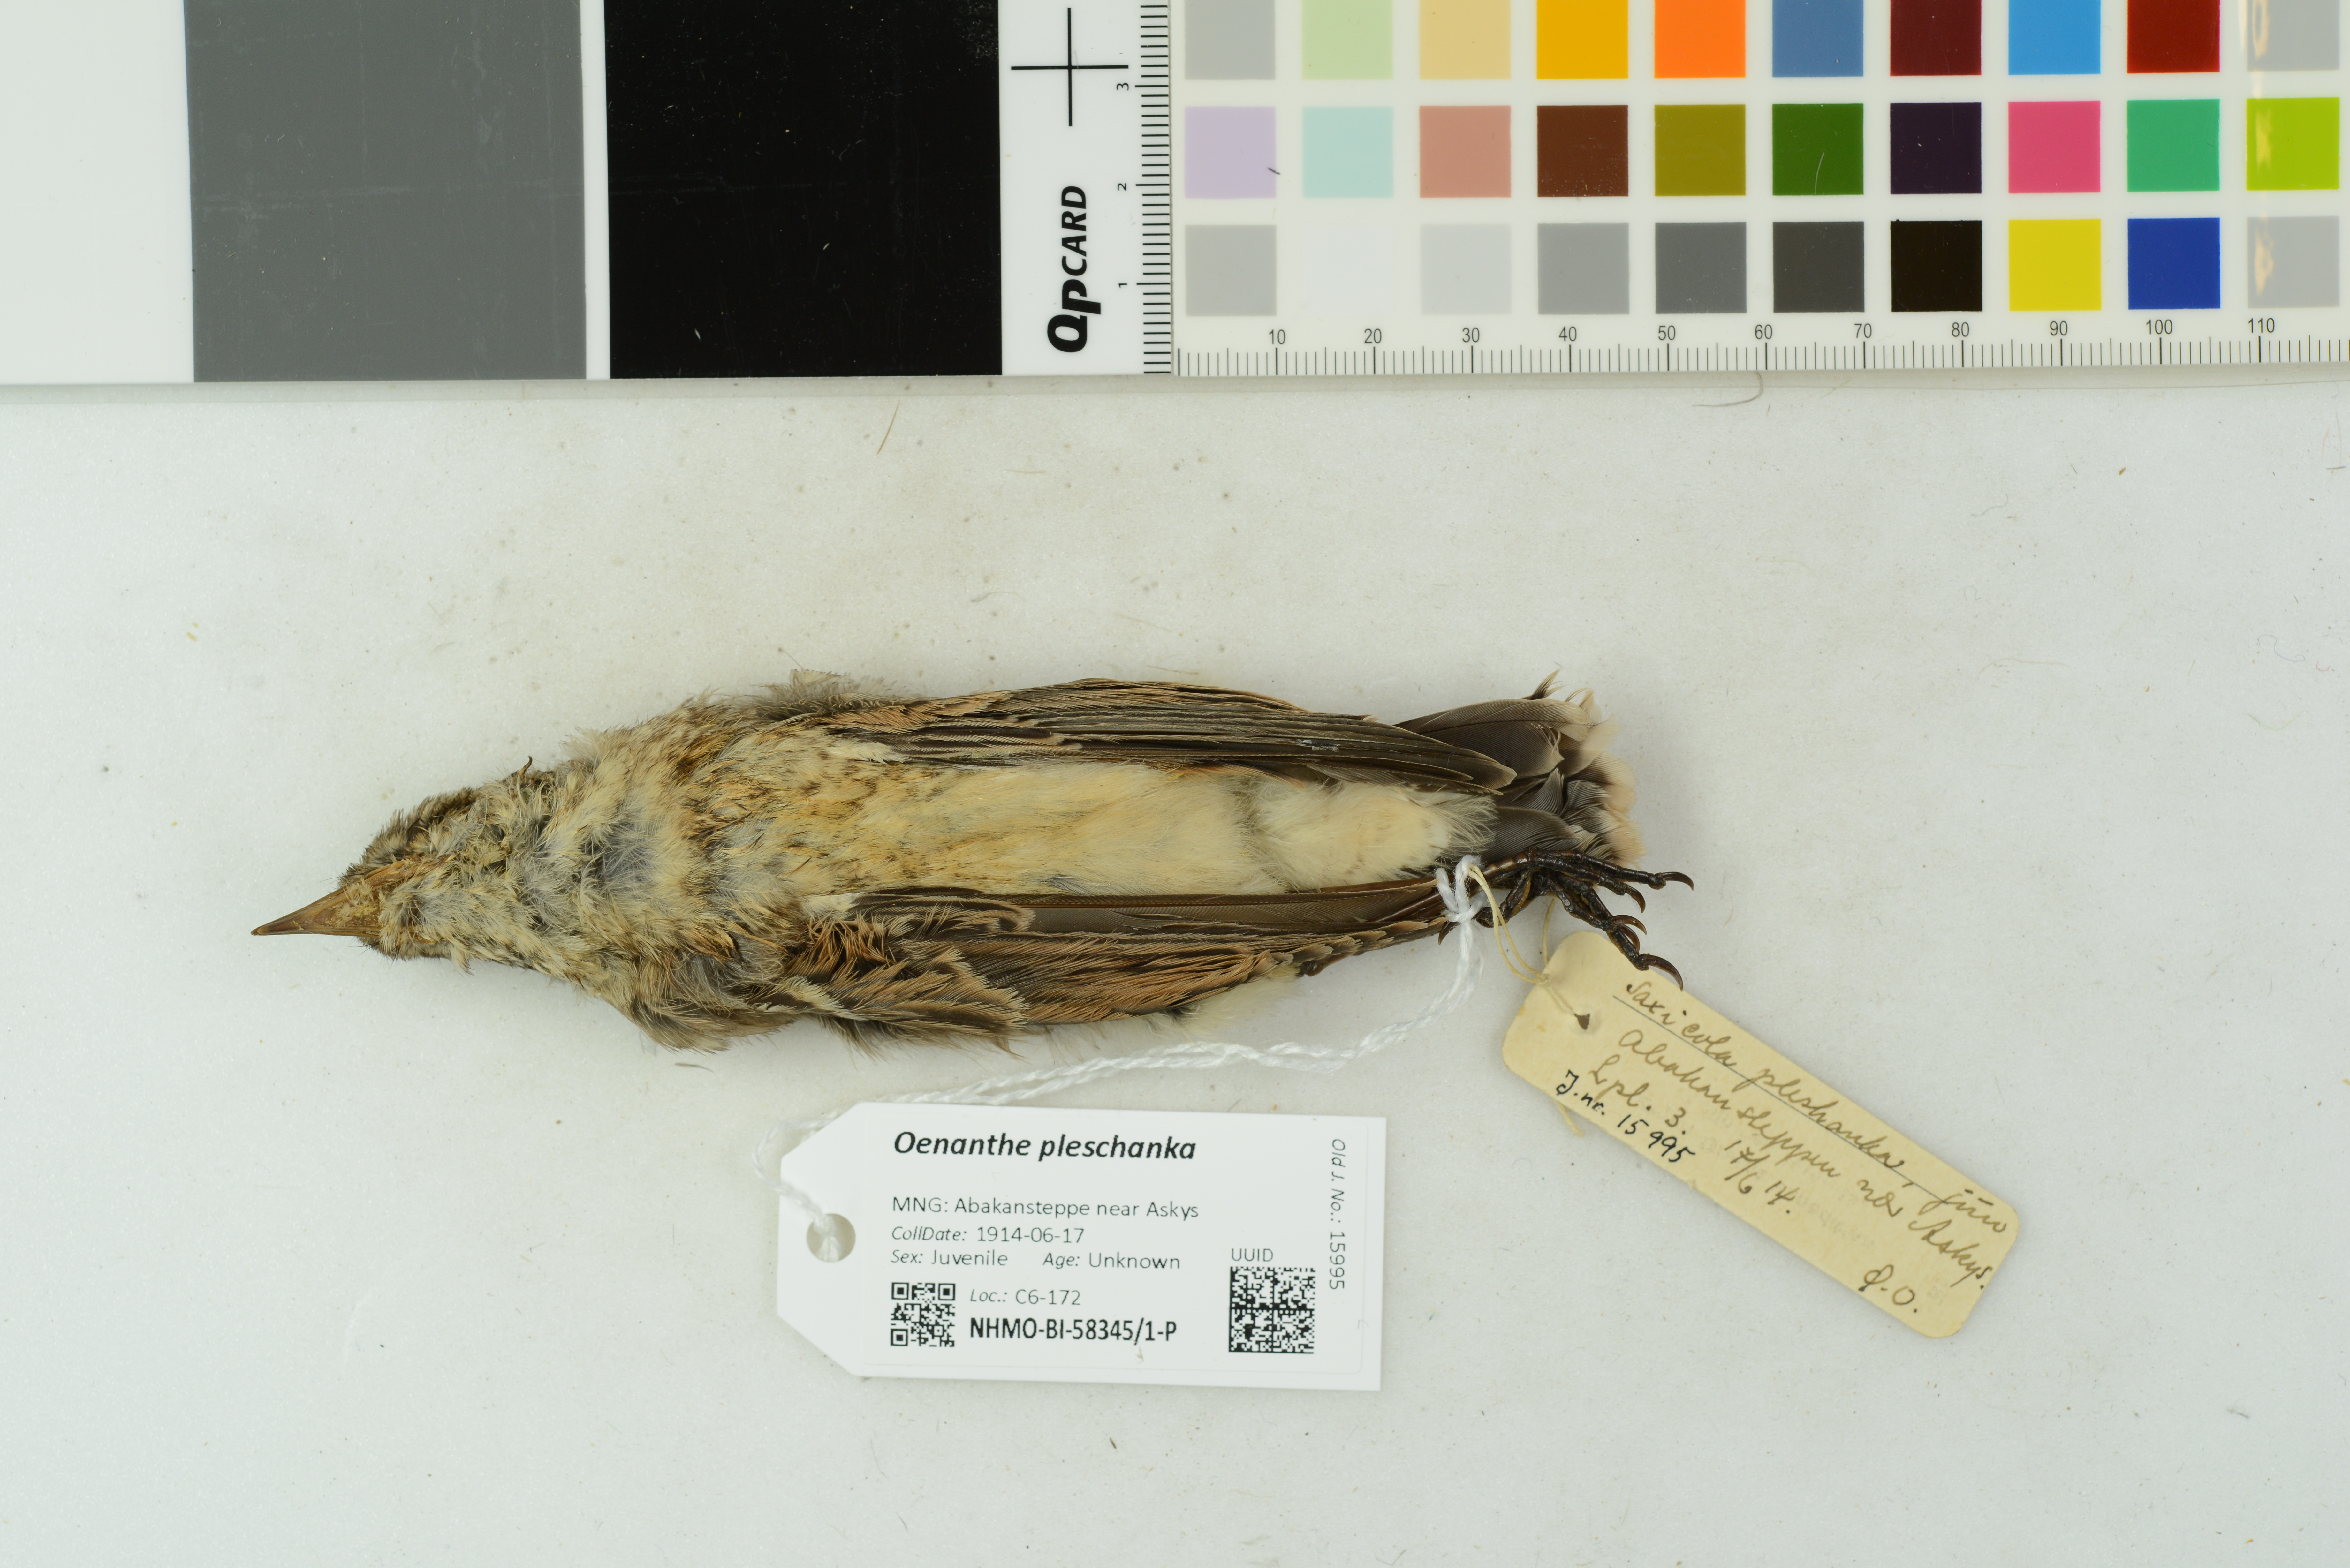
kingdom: Animalia
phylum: Chordata
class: Aves
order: Passeriformes
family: Muscicapidae
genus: Oenanthe
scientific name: Oenanthe pleschanka
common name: Pied wheatear
